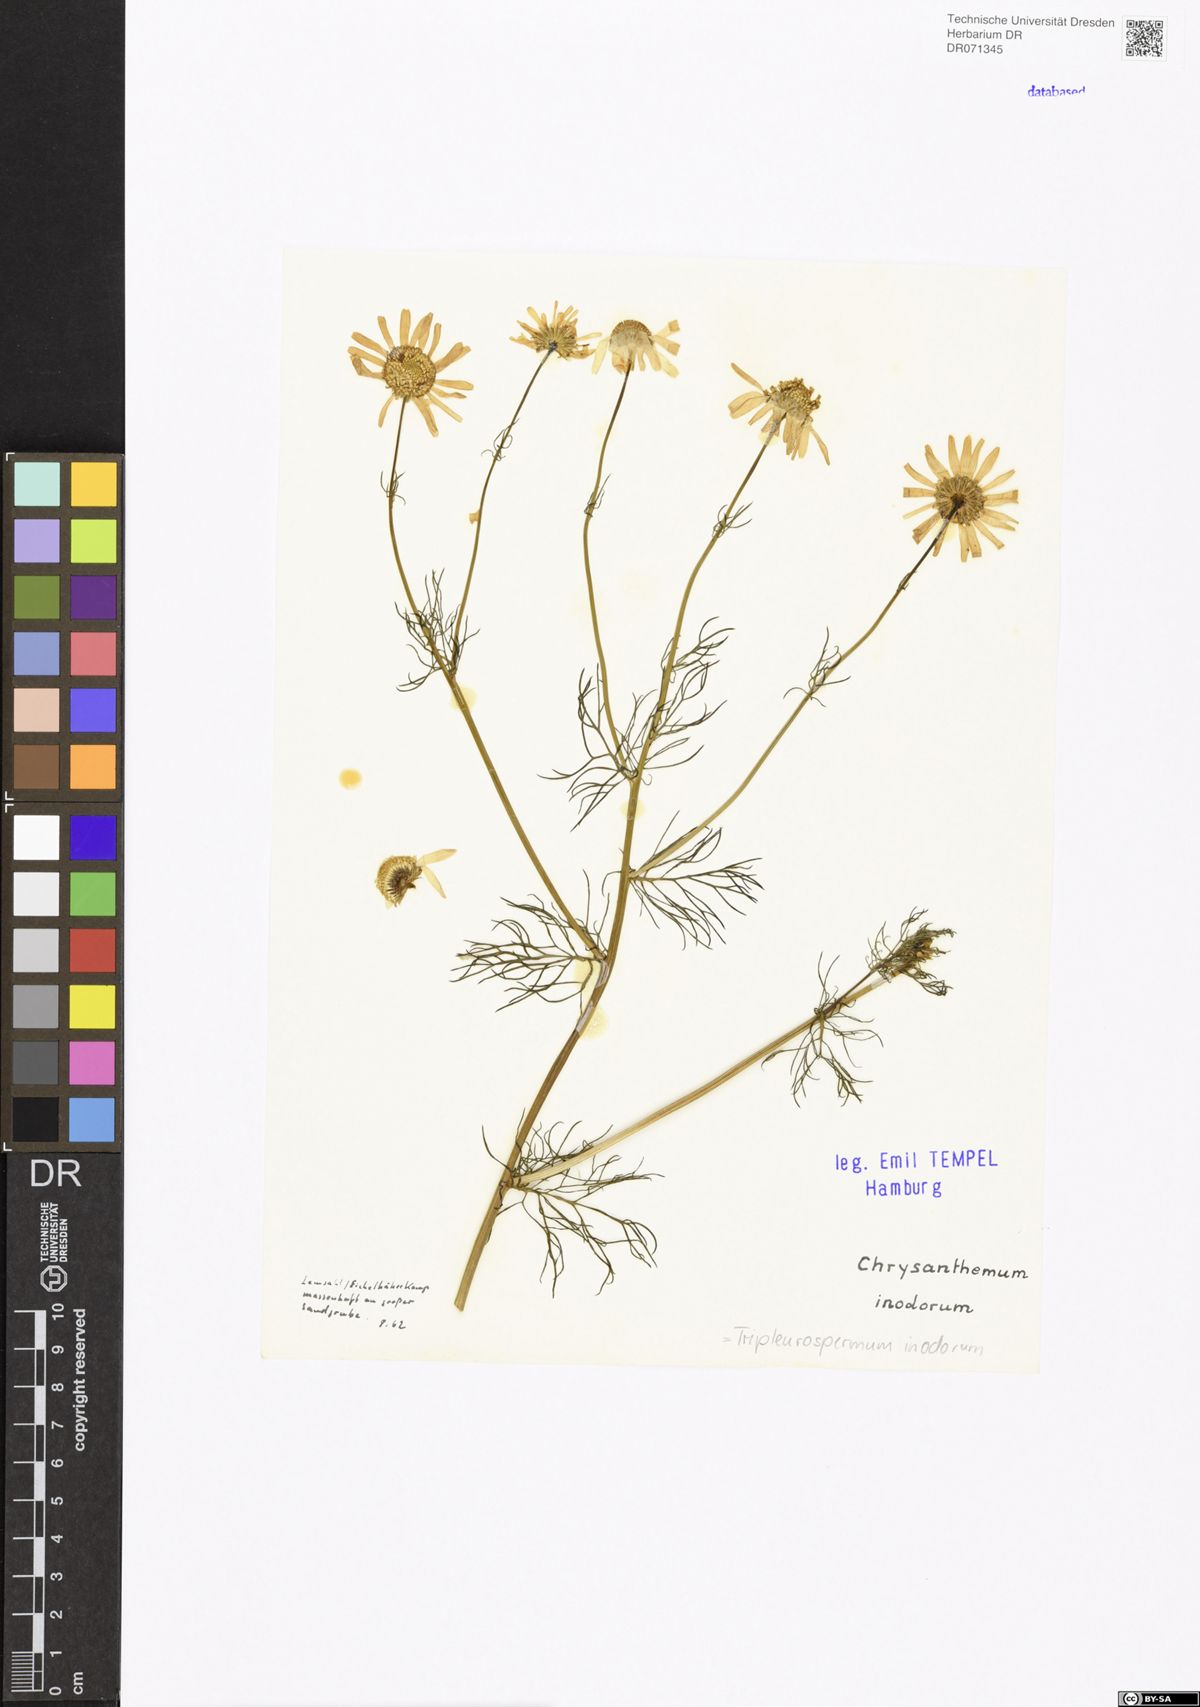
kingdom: Plantae
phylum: Tracheophyta
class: Magnoliopsida
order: Asterales
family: Asteraceae
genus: Tripleurospermum
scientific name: Tripleurospermum inodorum
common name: Scentless mayweed
